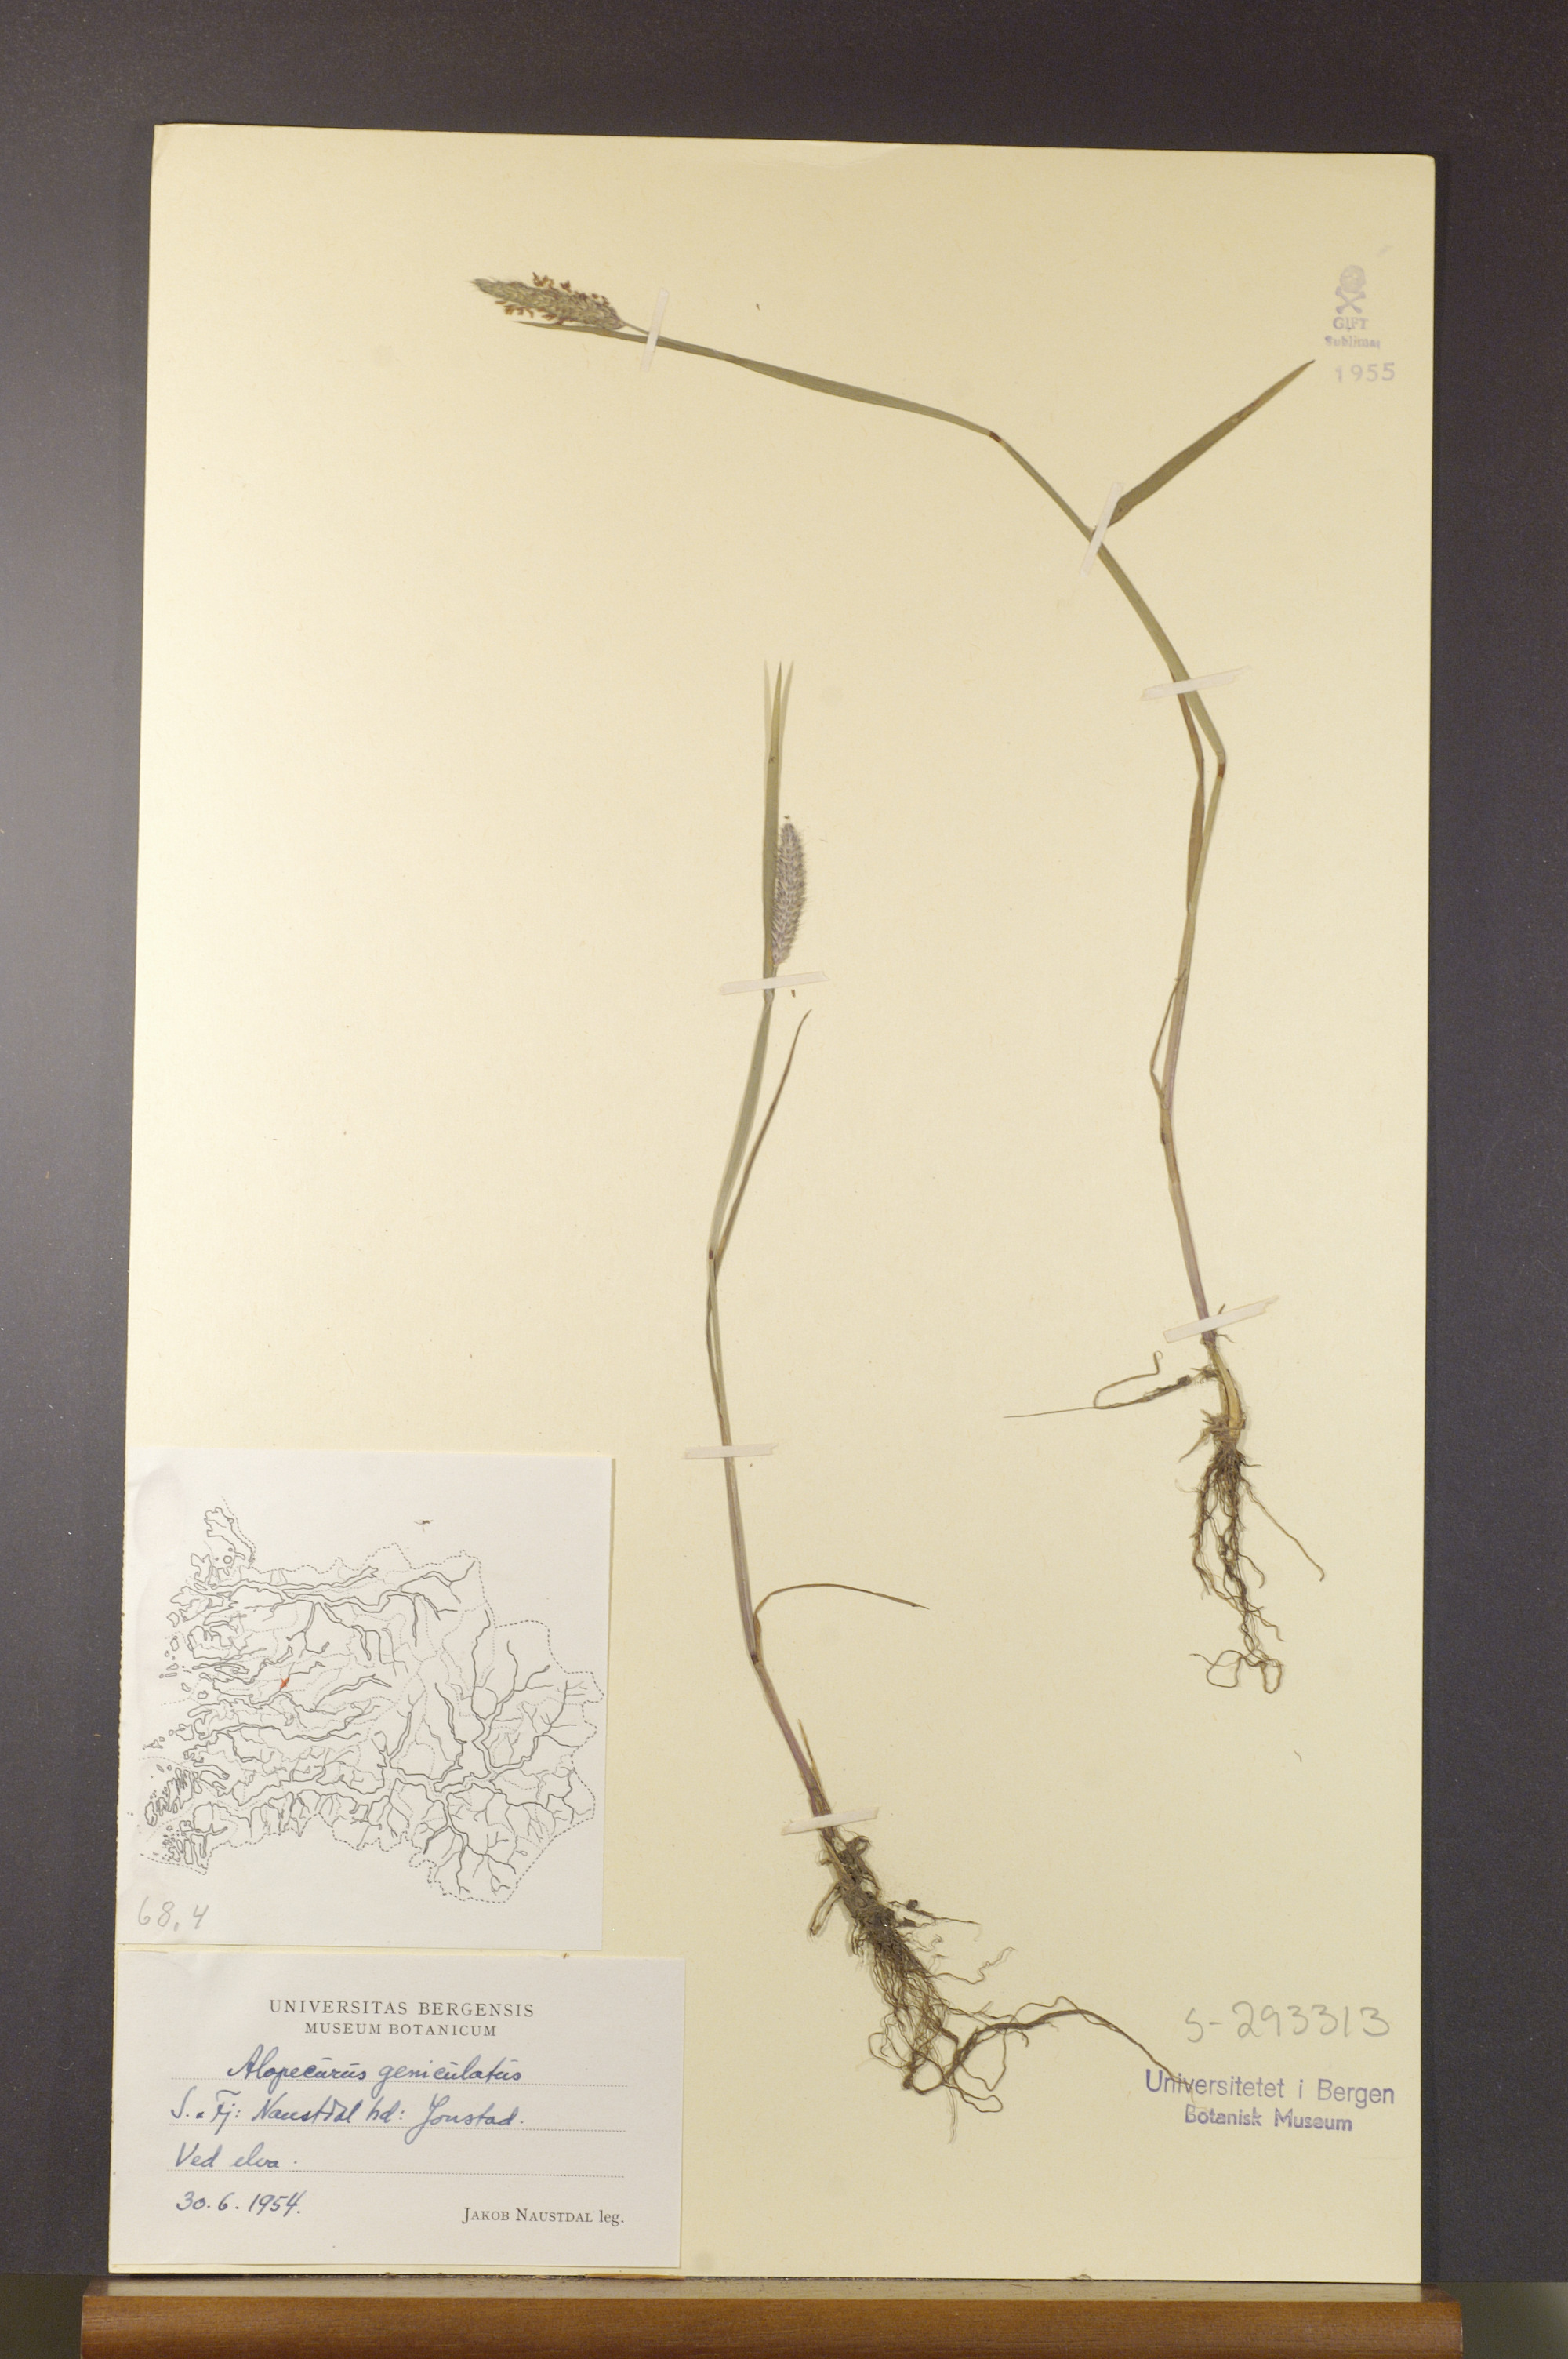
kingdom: Plantae
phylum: Tracheophyta
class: Liliopsida
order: Poales
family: Poaceae
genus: Alopecurus
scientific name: Alopecurus geniculatus
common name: Water foxtail
